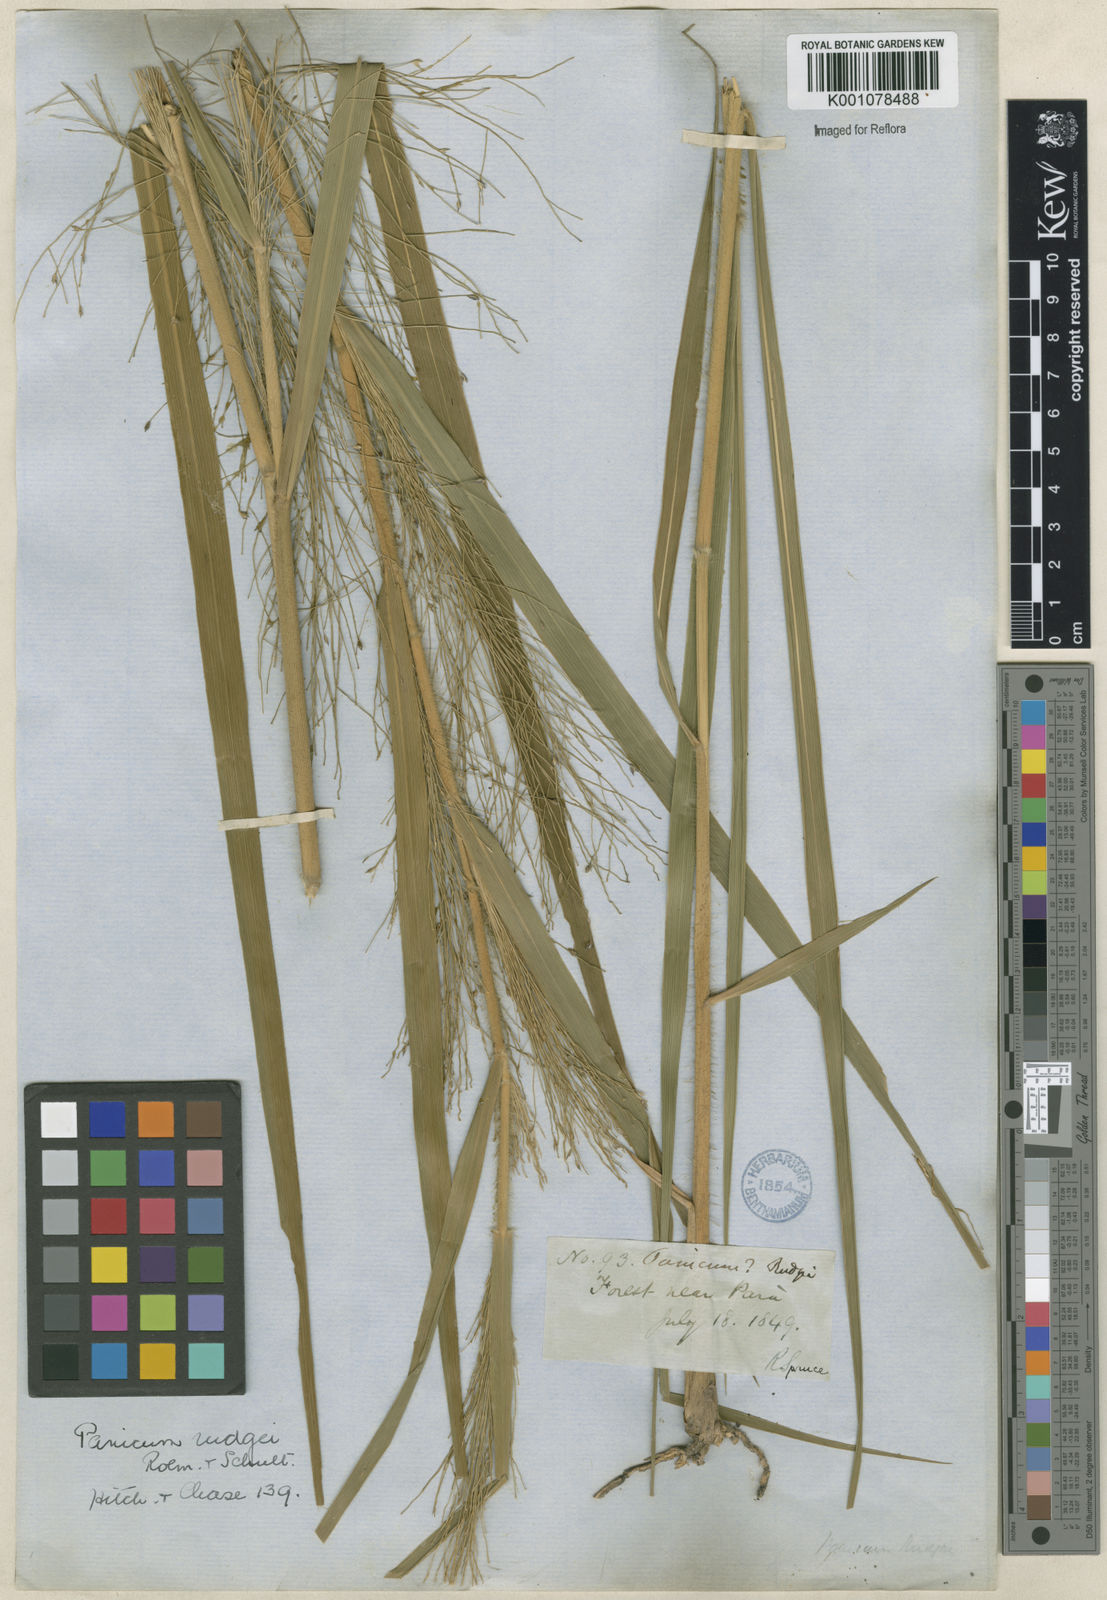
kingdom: Plantae
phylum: Tracheophyta
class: Liliopsida
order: Poales
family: Poaceae
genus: Panicum
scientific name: Panicum rudgei
